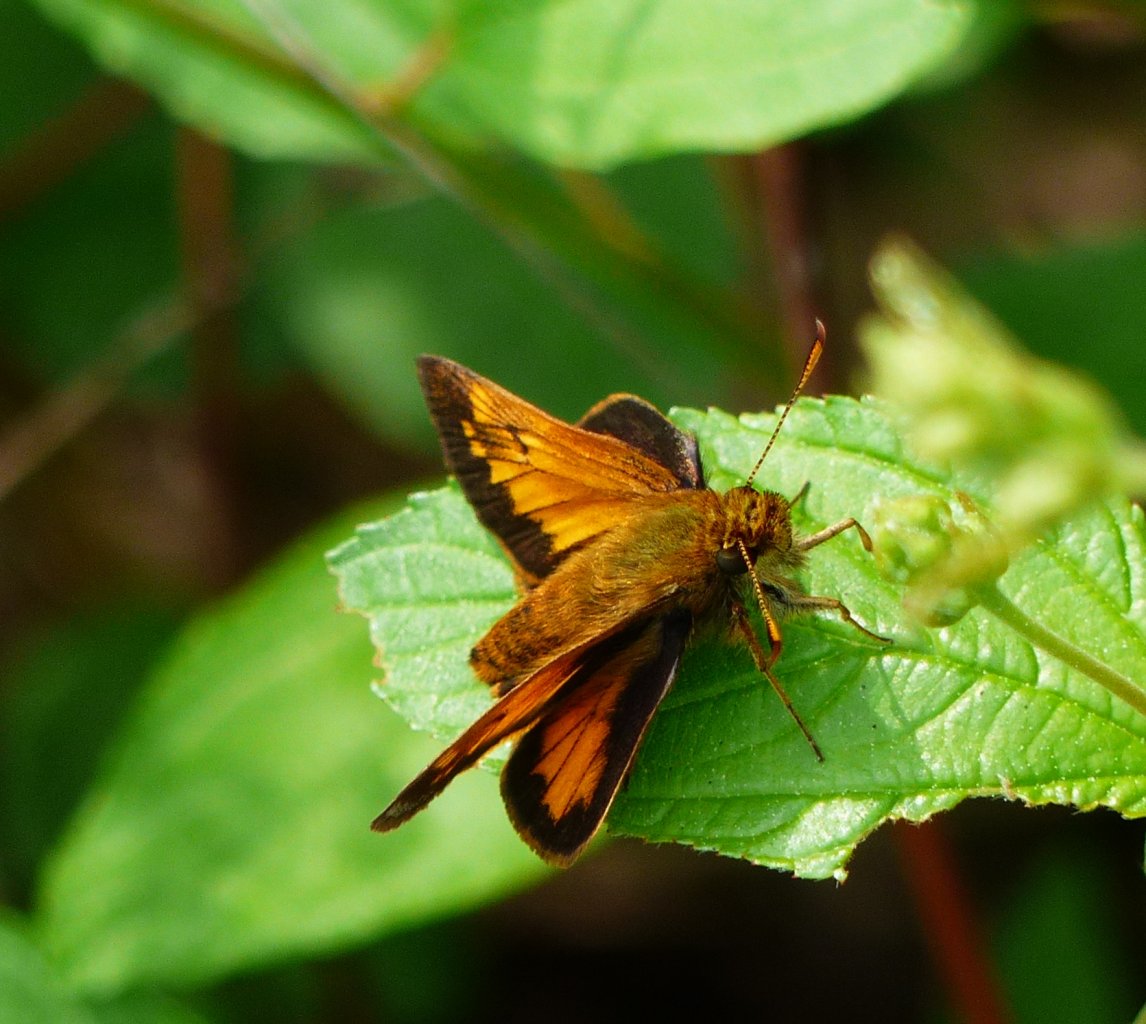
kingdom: Animalia
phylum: Arthropoda
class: Insecta
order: Lepidoptera
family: Hesperiidae
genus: Lon
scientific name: Lon hobomok
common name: Hobomok Skipper
